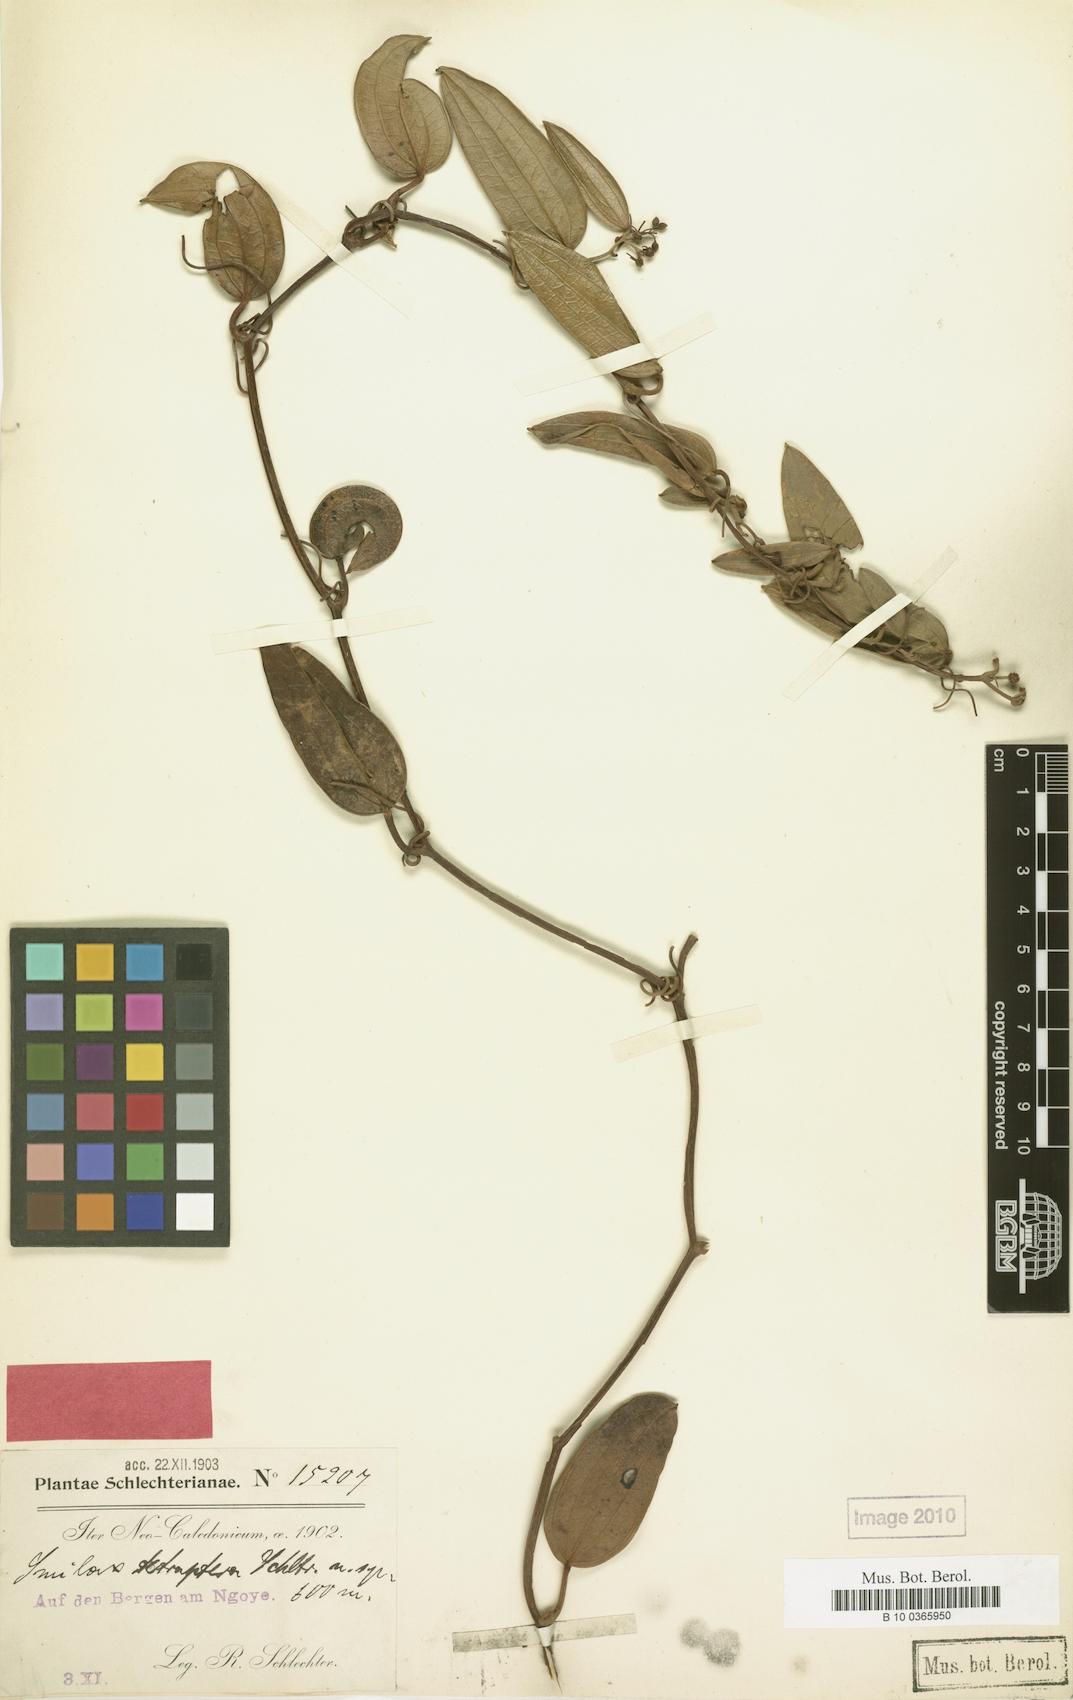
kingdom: Plantae
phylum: Tracheophyta
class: Liliopsida
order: Liliales
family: Smilacaceae
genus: Smilax
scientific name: Smilax tetraptera
